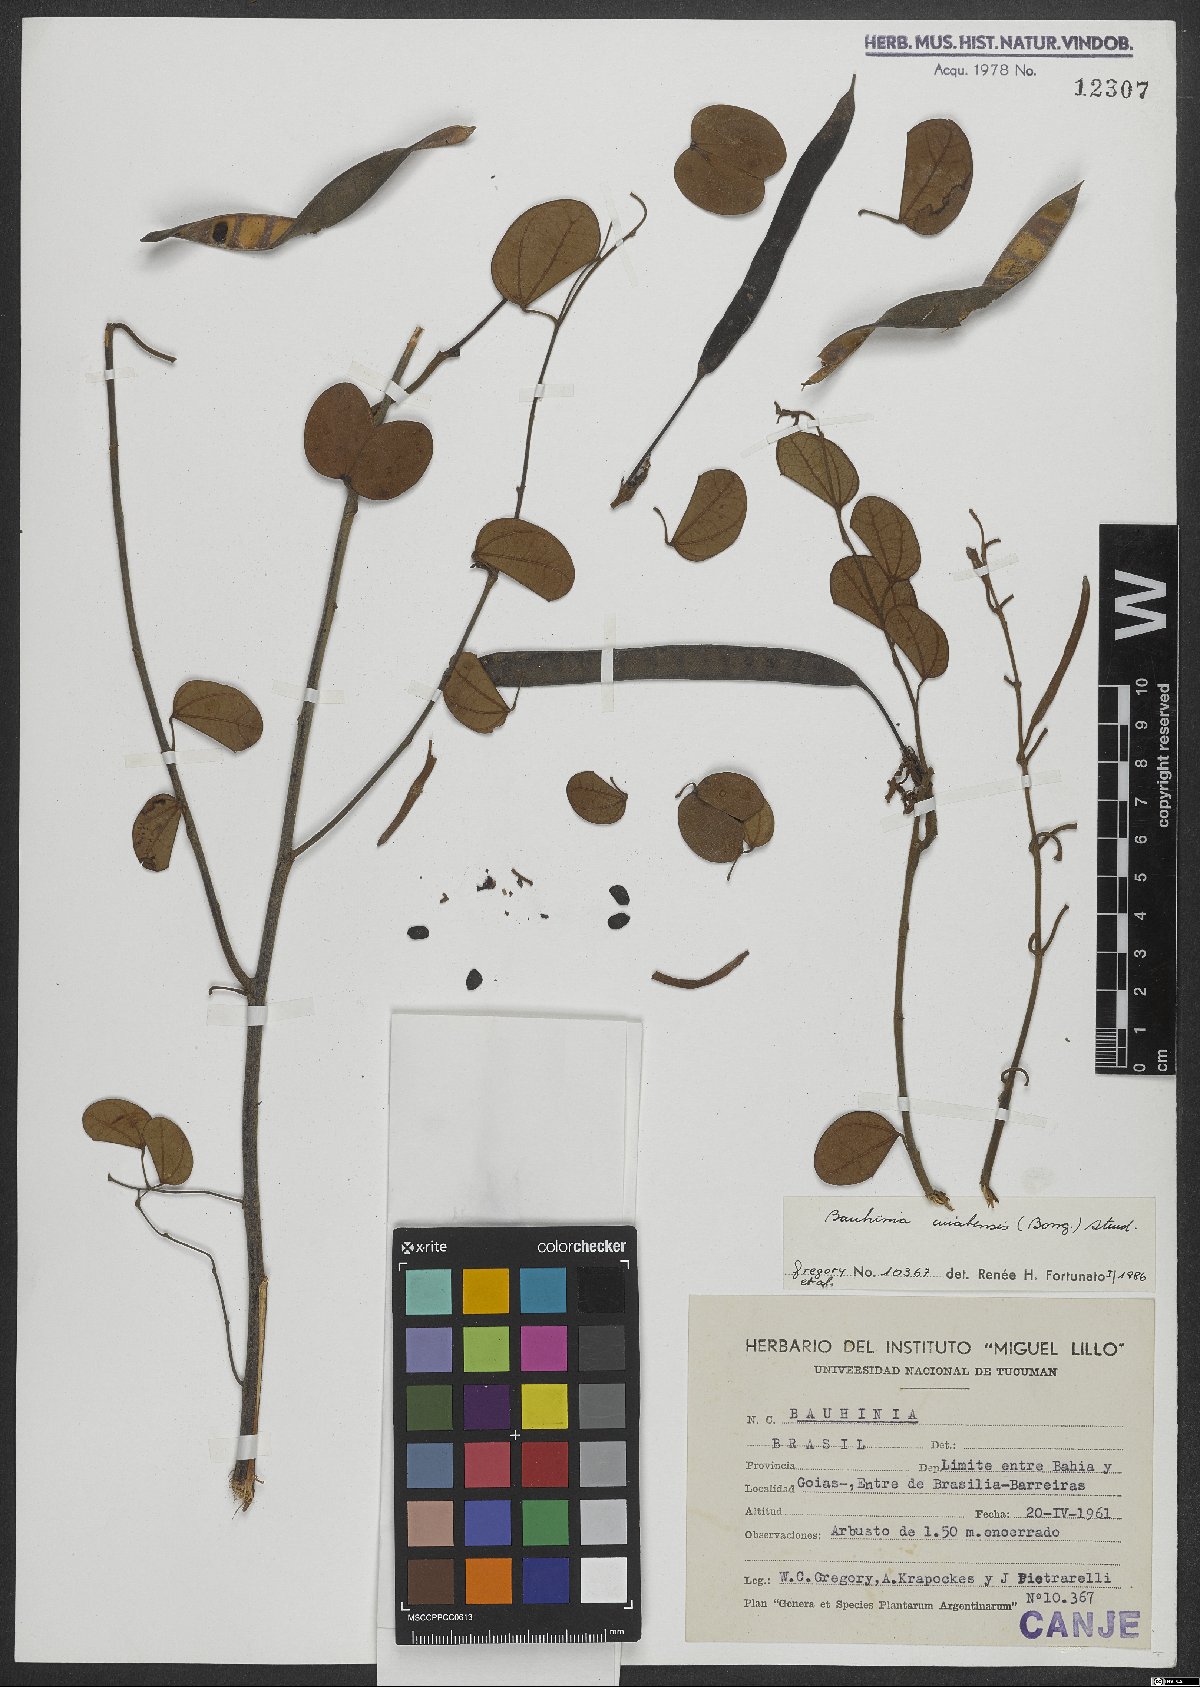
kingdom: Plantae
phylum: Tracheophyta
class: Magnoliopsida
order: Fabales
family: Fabaceae
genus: Bauhinia
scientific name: Bauhinia ungulata
